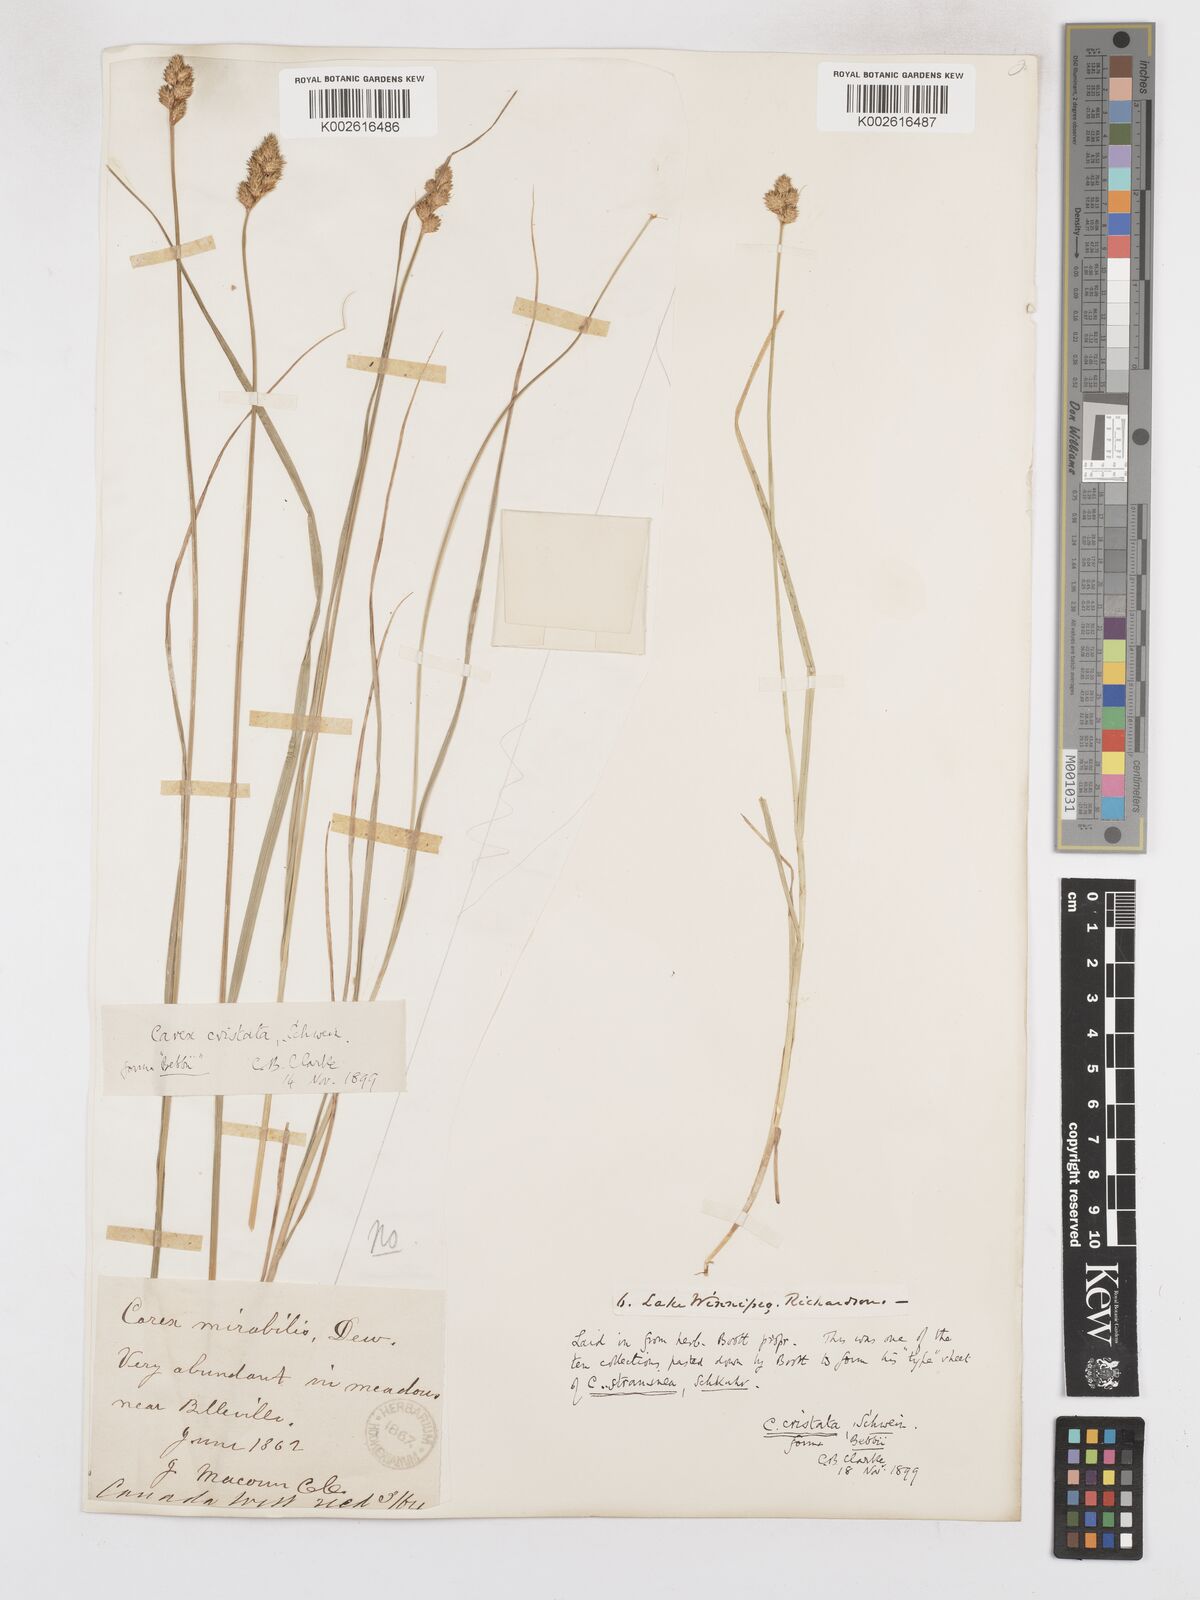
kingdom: Plantae
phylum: Tracheophyta
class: Liliopsida
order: Poales
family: Cyperaceae
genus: Carex
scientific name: Carex cristatella
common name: Crested oval sedge
